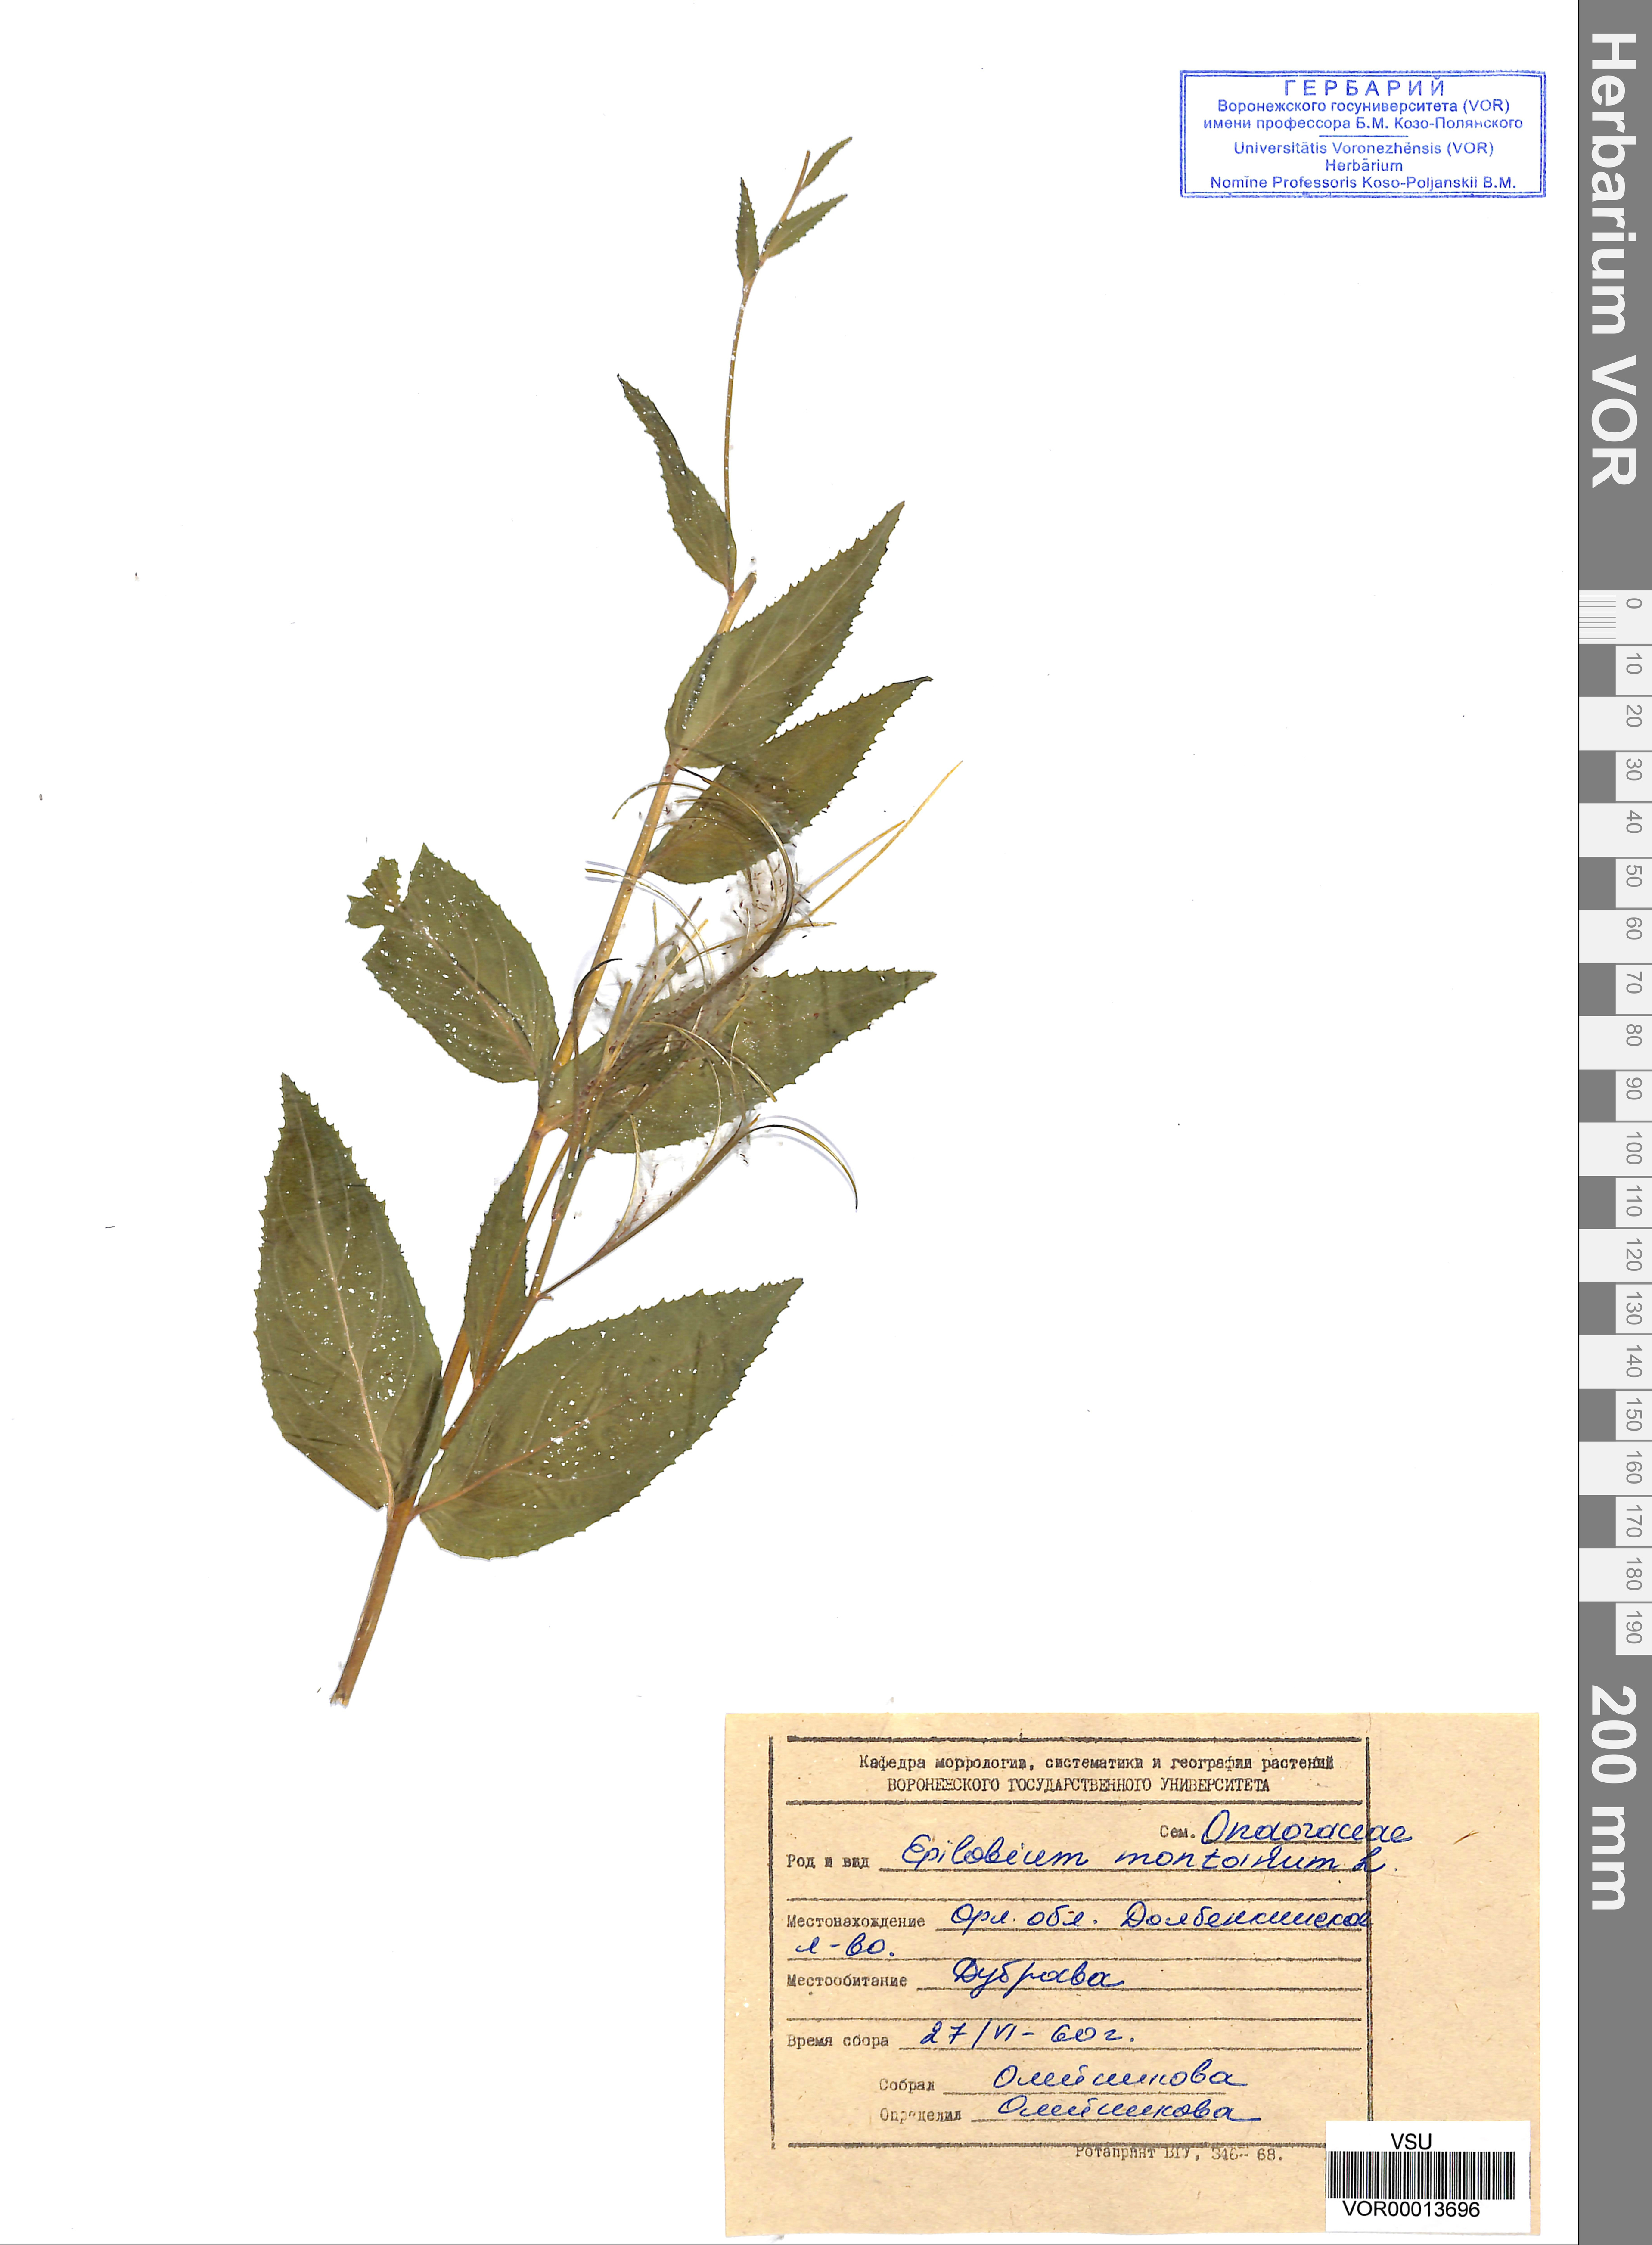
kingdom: Plantae
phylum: Tracheophyta
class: Magnoliopsida
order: Myrtales
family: Onagraceae
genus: Epilobium
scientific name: Epilobium montanum
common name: Broad-leaved willowherb
